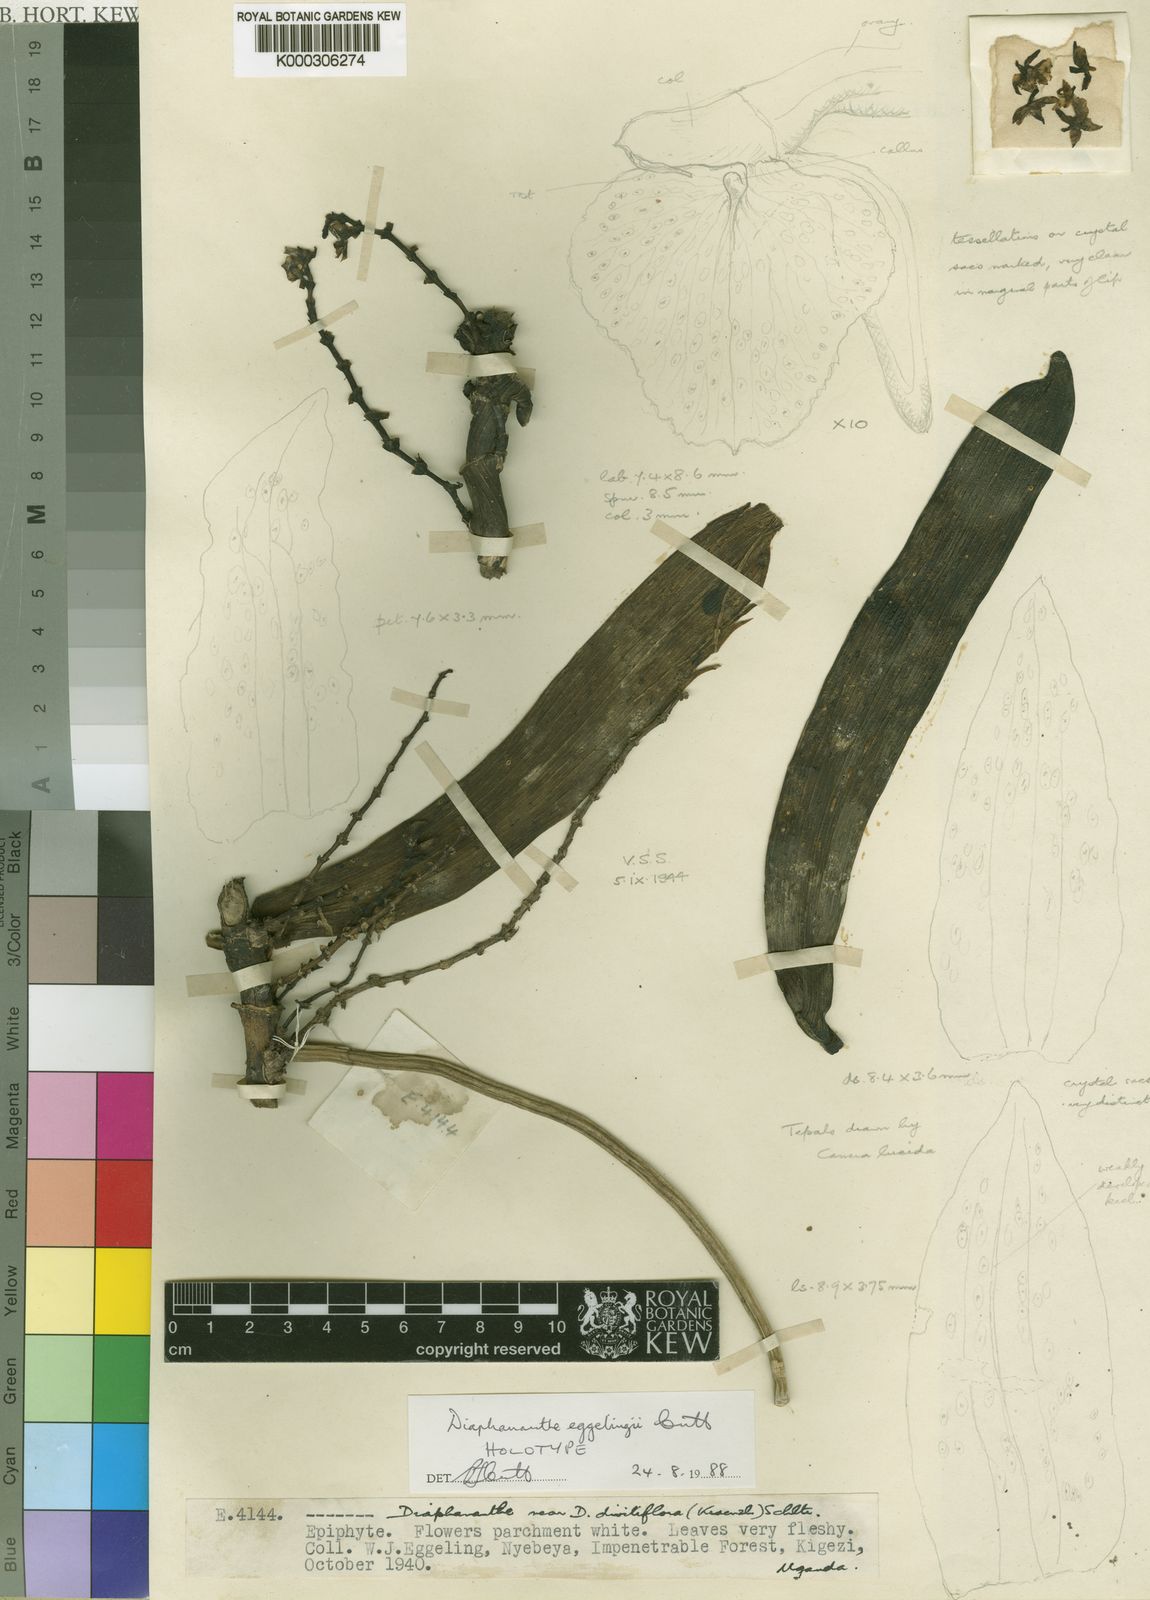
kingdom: Plantae
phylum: Tracheophyta
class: Liliopsida
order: Asparagales
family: Orchidaceae
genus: Diaphananthe
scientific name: Diaphananthe eggelingii
